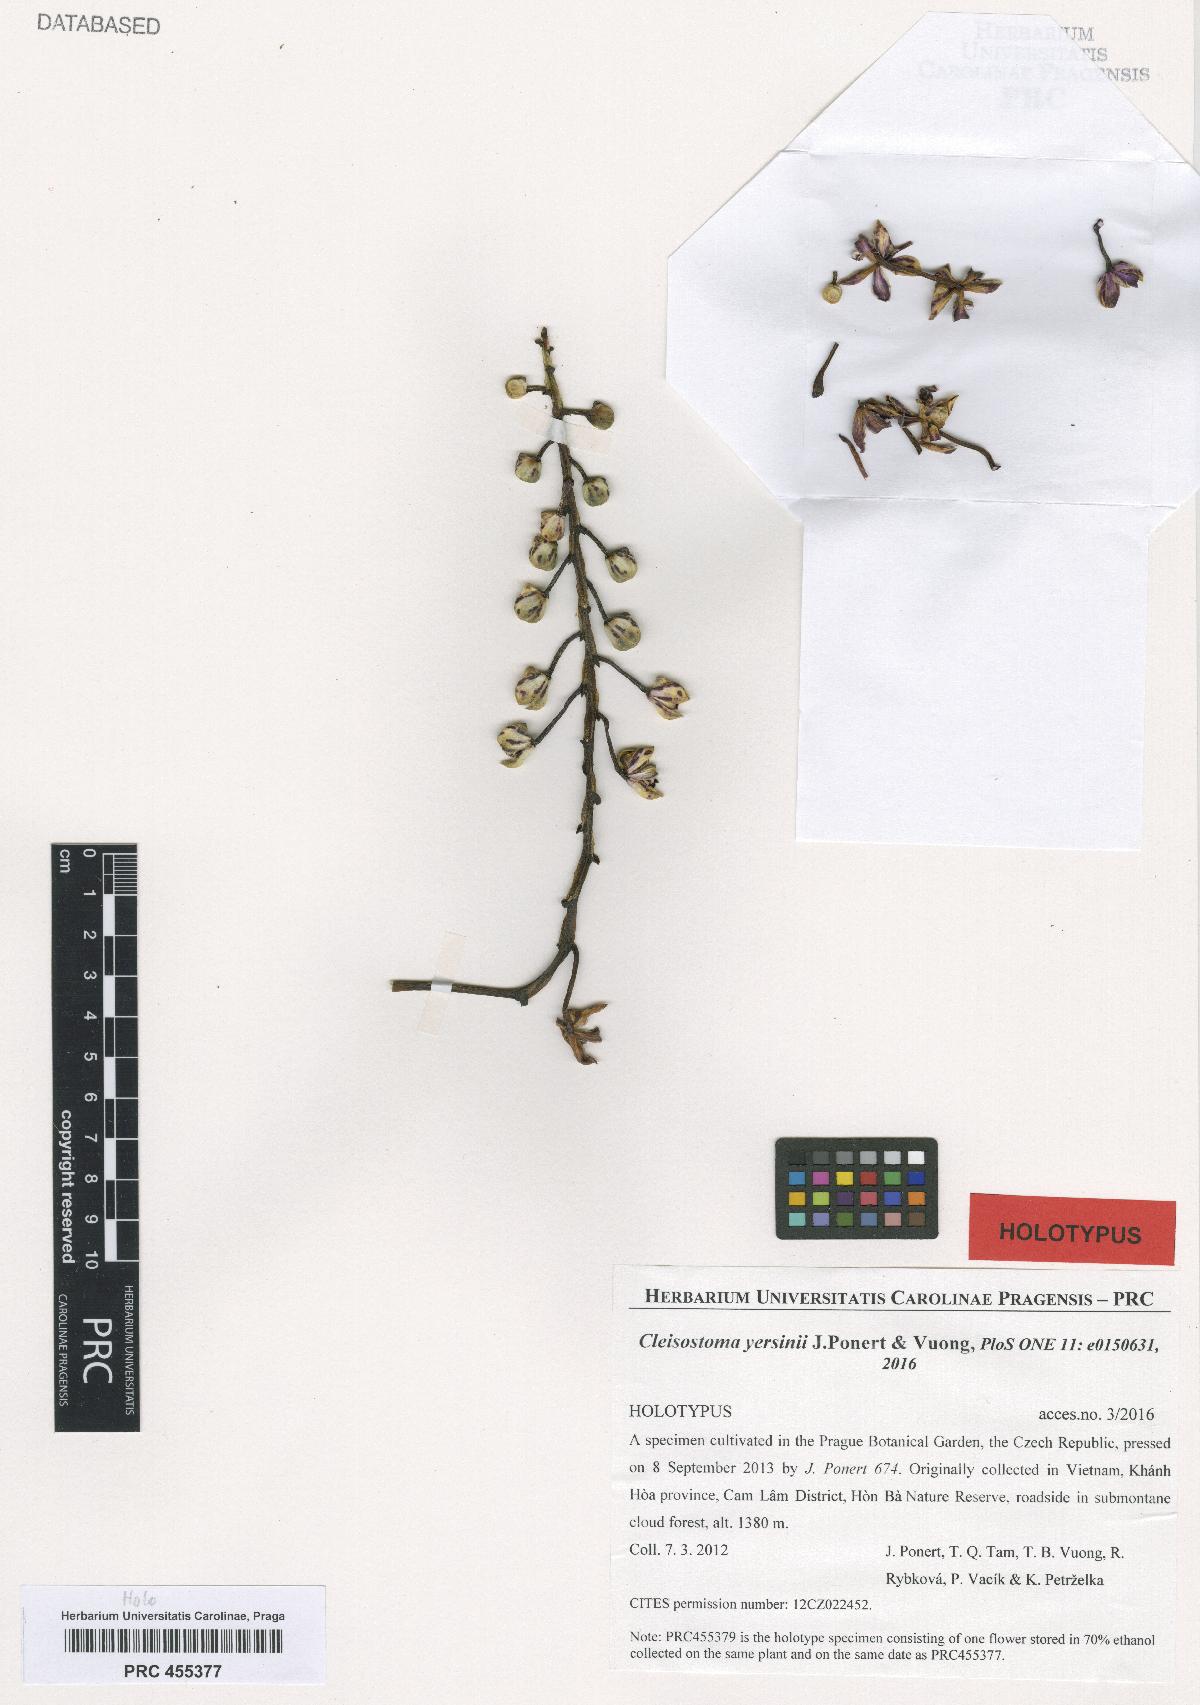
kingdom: Plantae
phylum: Tracheophyta
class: Liliopsida
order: Asparagales
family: Orchidaceae
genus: Cleisostoma
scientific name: Cleisostoma lecongkietii
